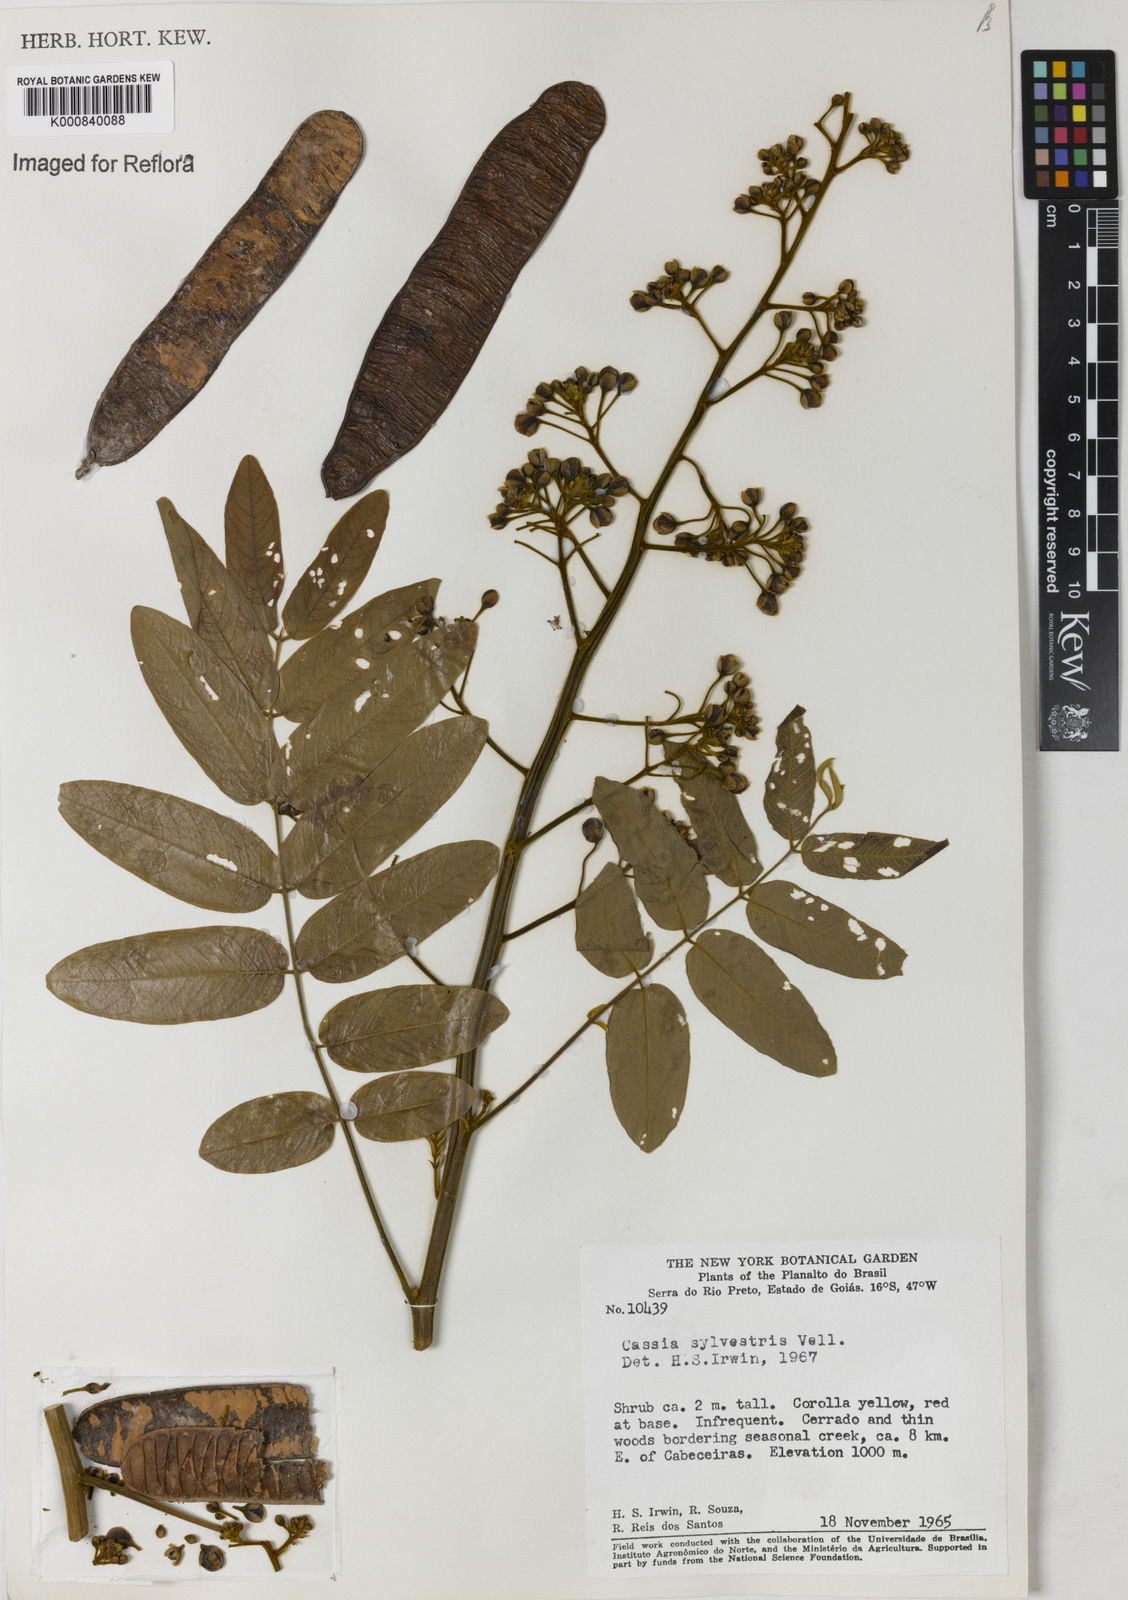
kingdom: Plantae
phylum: Tracheophyta
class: Magnoliopsida
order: Fabales
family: Fabaceae
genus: Senna
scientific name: Senna silvestris
